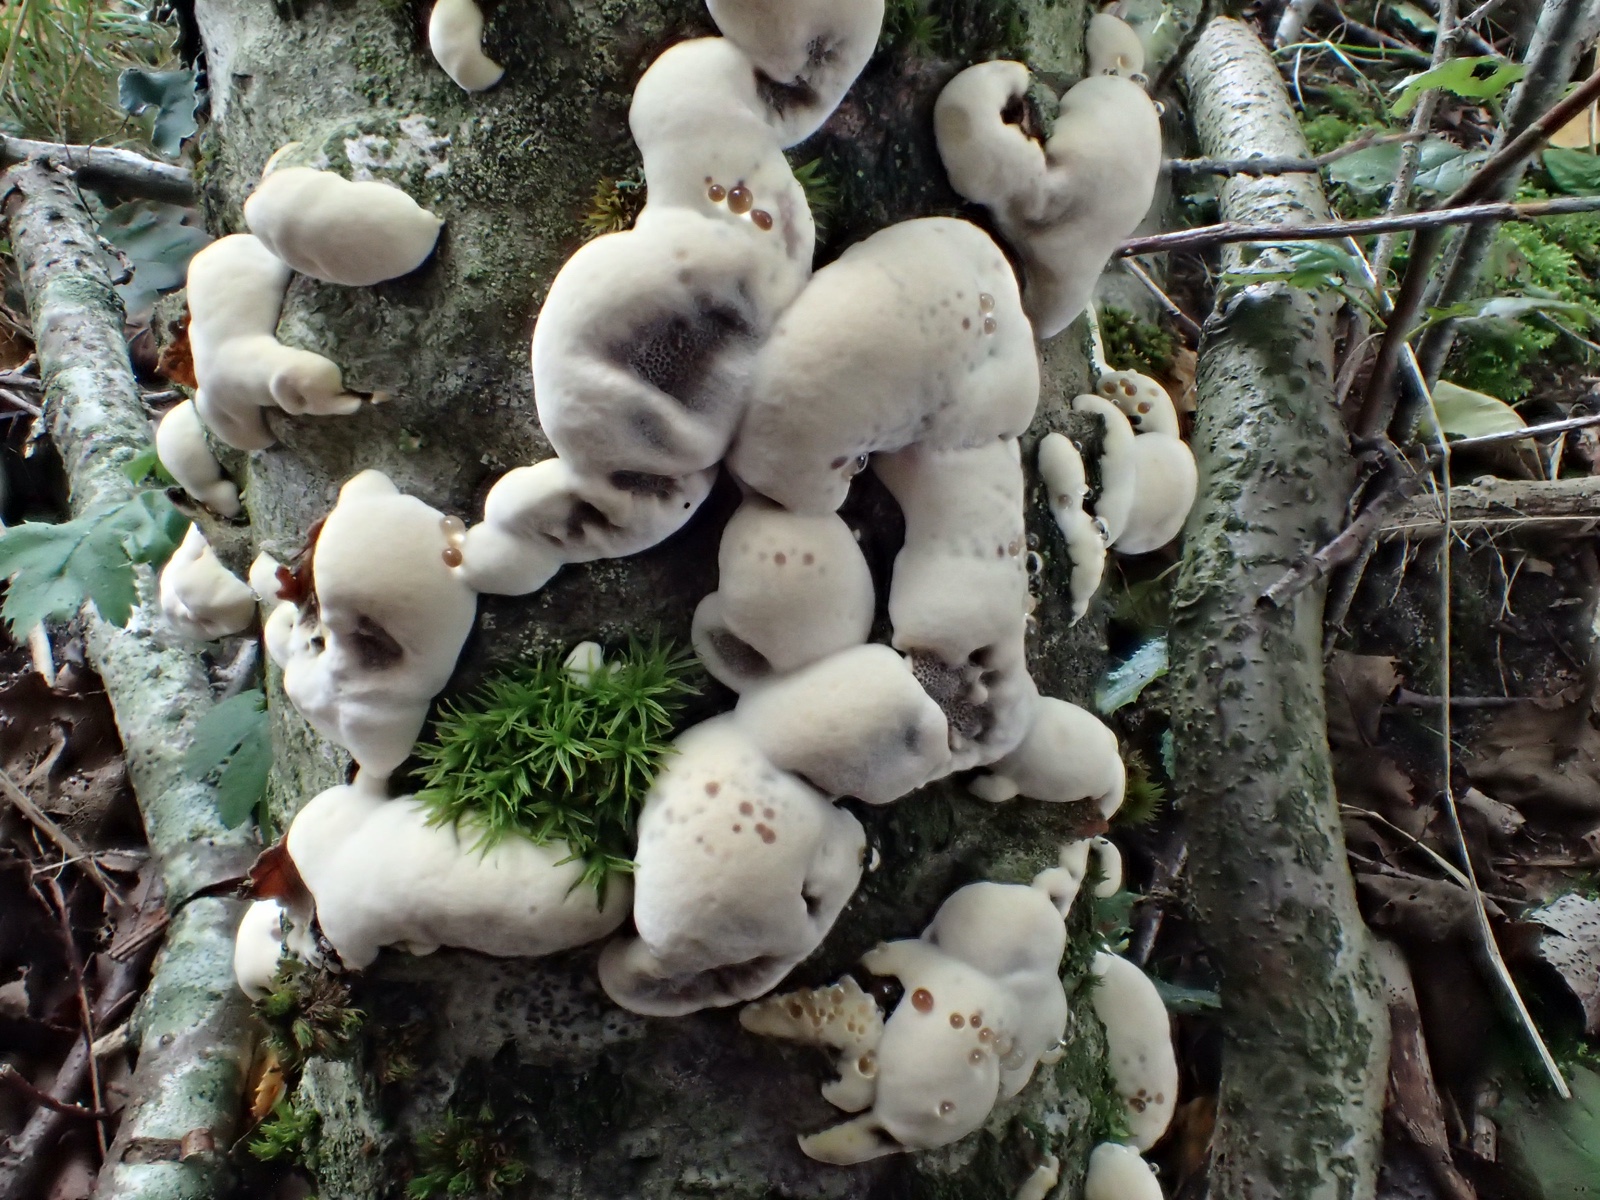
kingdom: Fungi
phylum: Basidiomycota
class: Agaricomycetes
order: Hymenochaetales
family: Hymenochaetaceae
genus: Xanthoporia
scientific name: Xanthoporia radiata
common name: elle-spejlporesvamp
